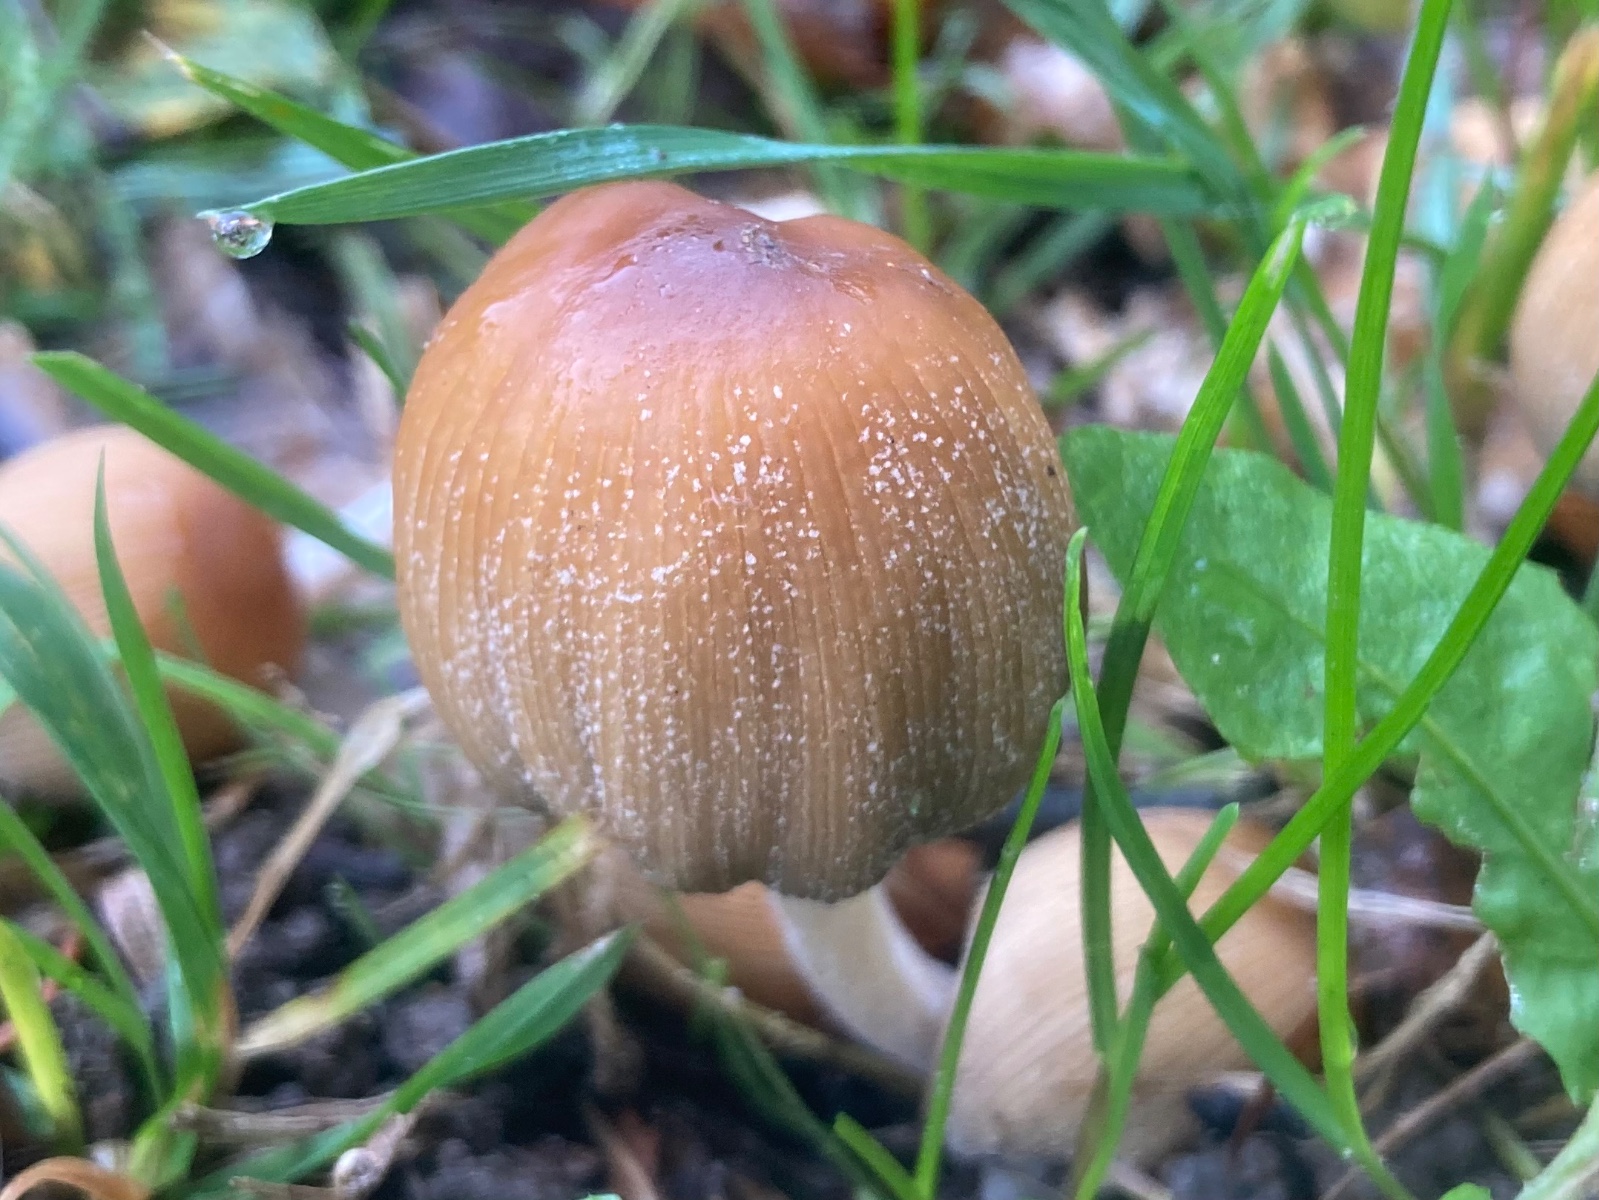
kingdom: Fungi
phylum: Basidiomycota
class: Agaricomycetes
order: Agaricales
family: Psathyrellaceae
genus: Coprinellus
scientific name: Coprinellus micaceus
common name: glimmer-blækhat
